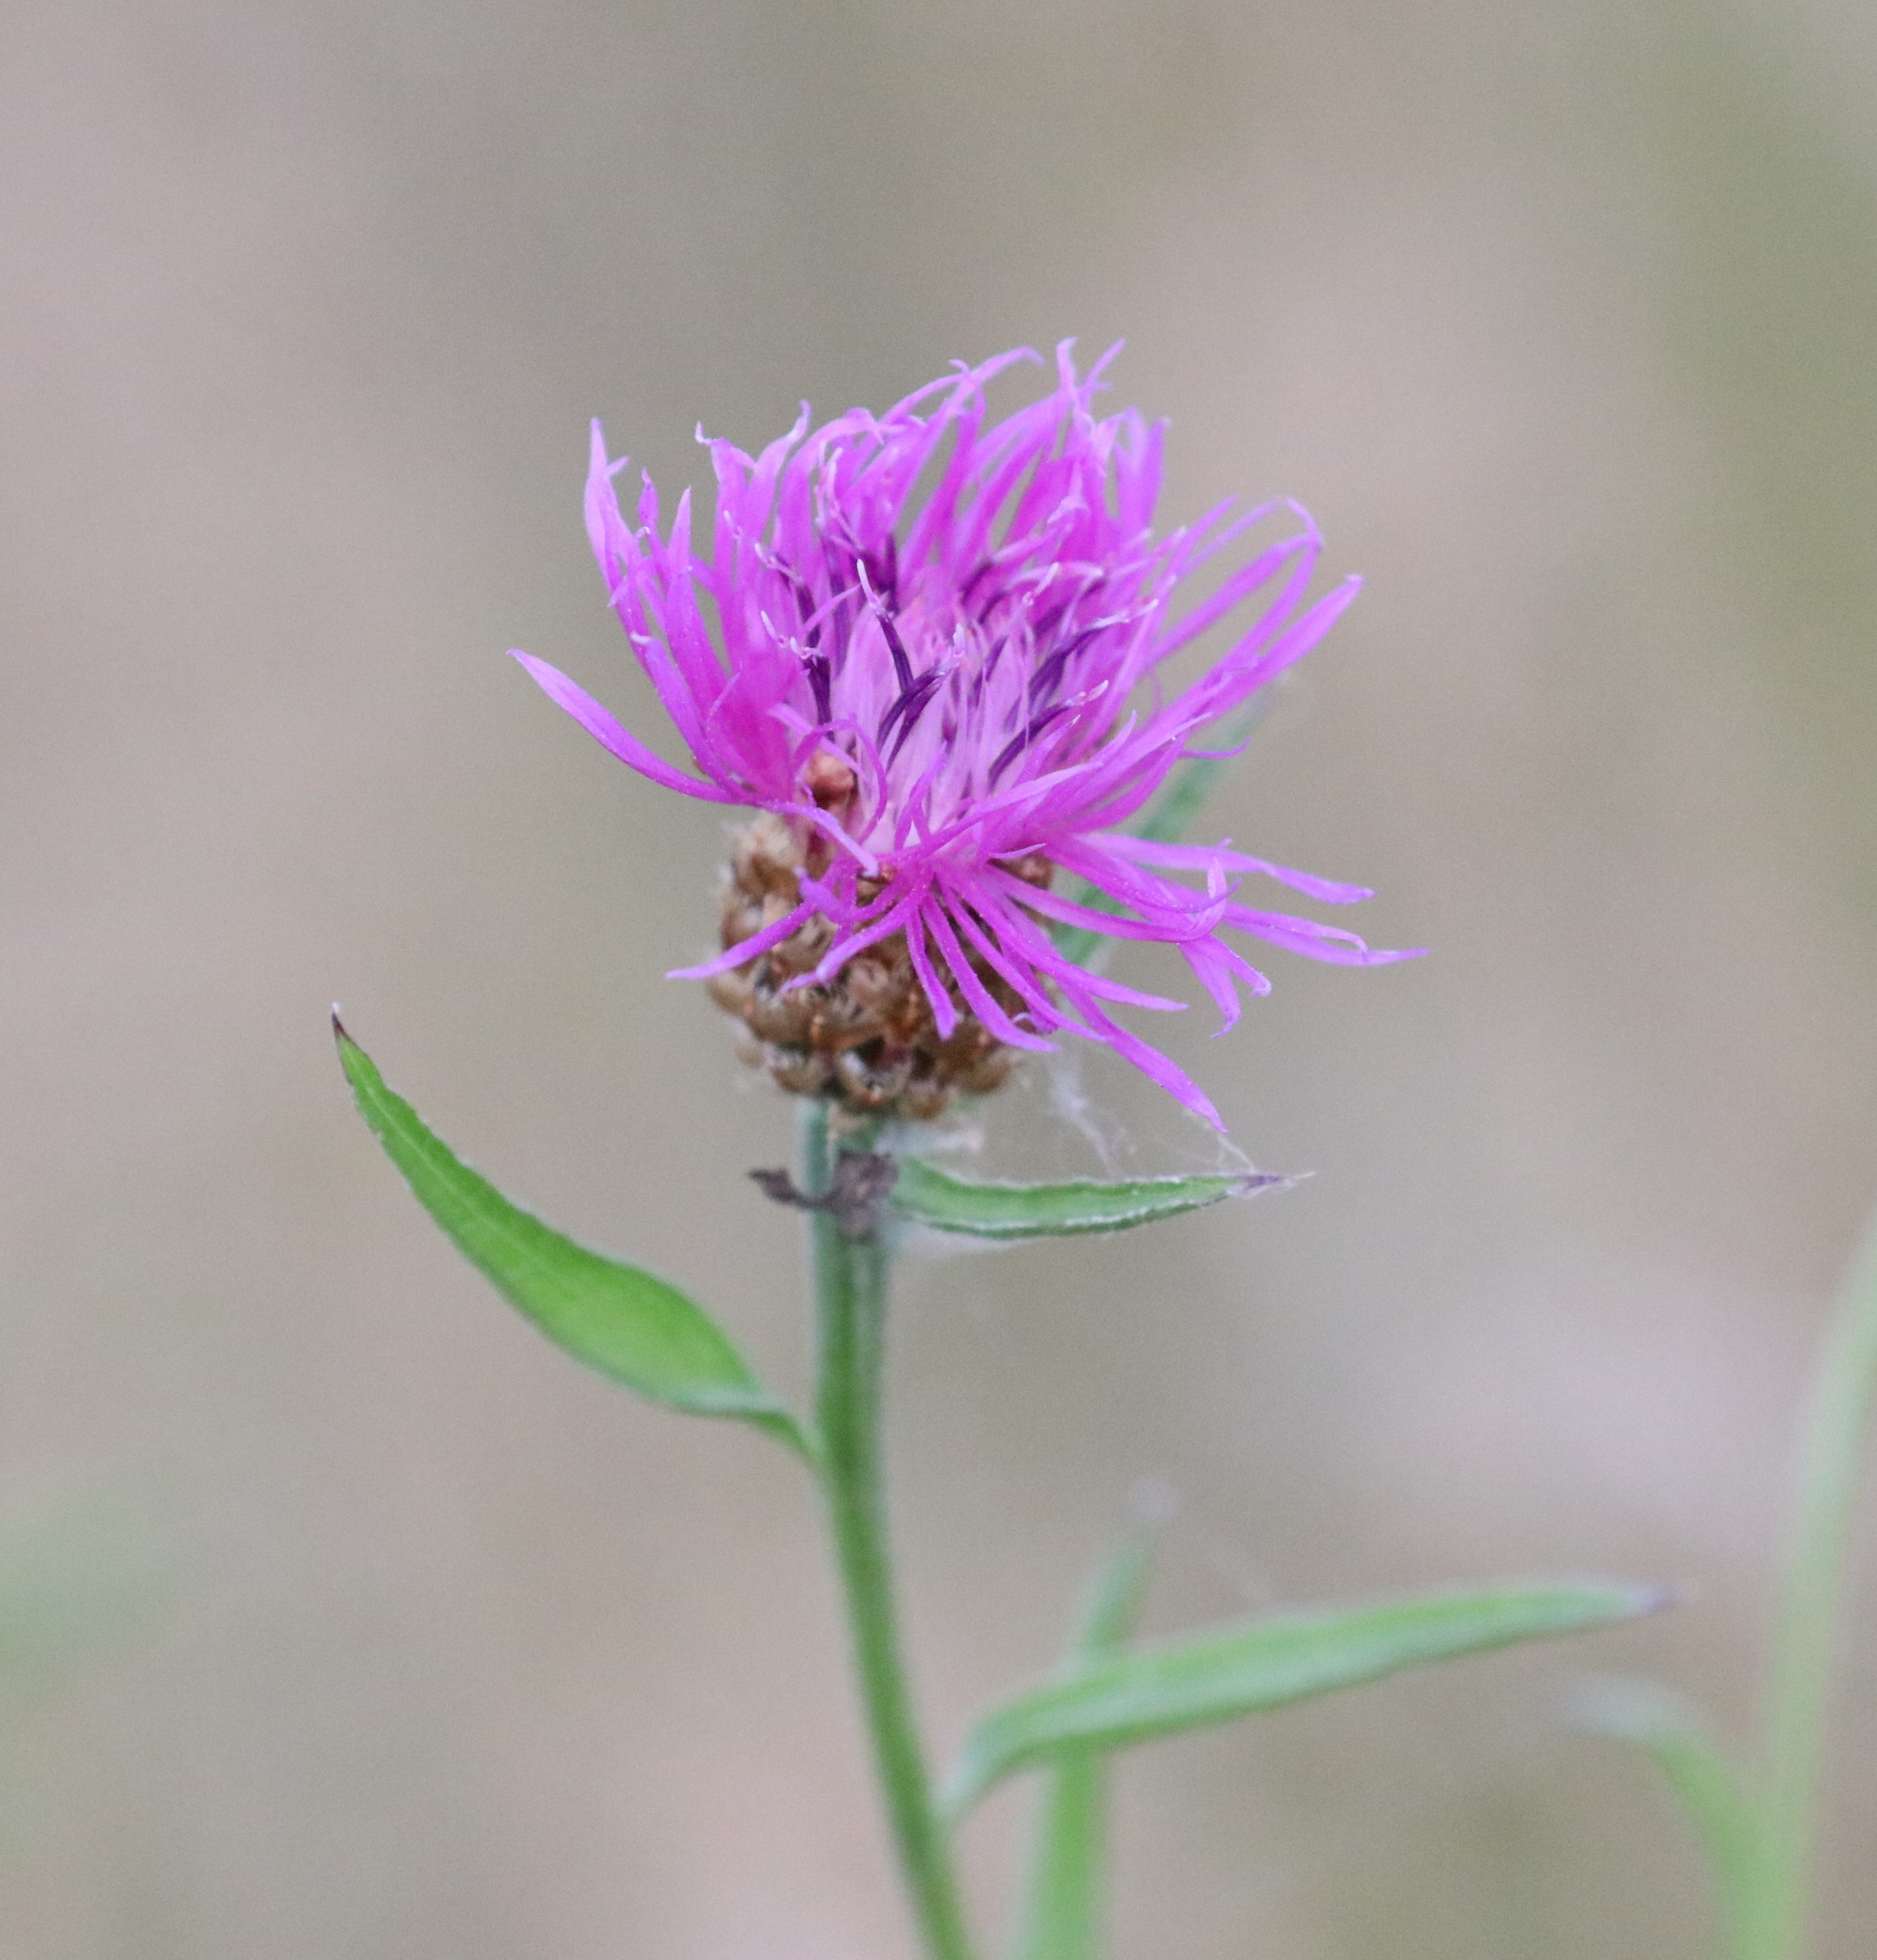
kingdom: Plantae
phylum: Tracheophyta
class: Magnoliopsida
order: Asterales
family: Asteraceae
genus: Centaurea
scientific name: Centaurea jacea
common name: Almindelig knopurt
